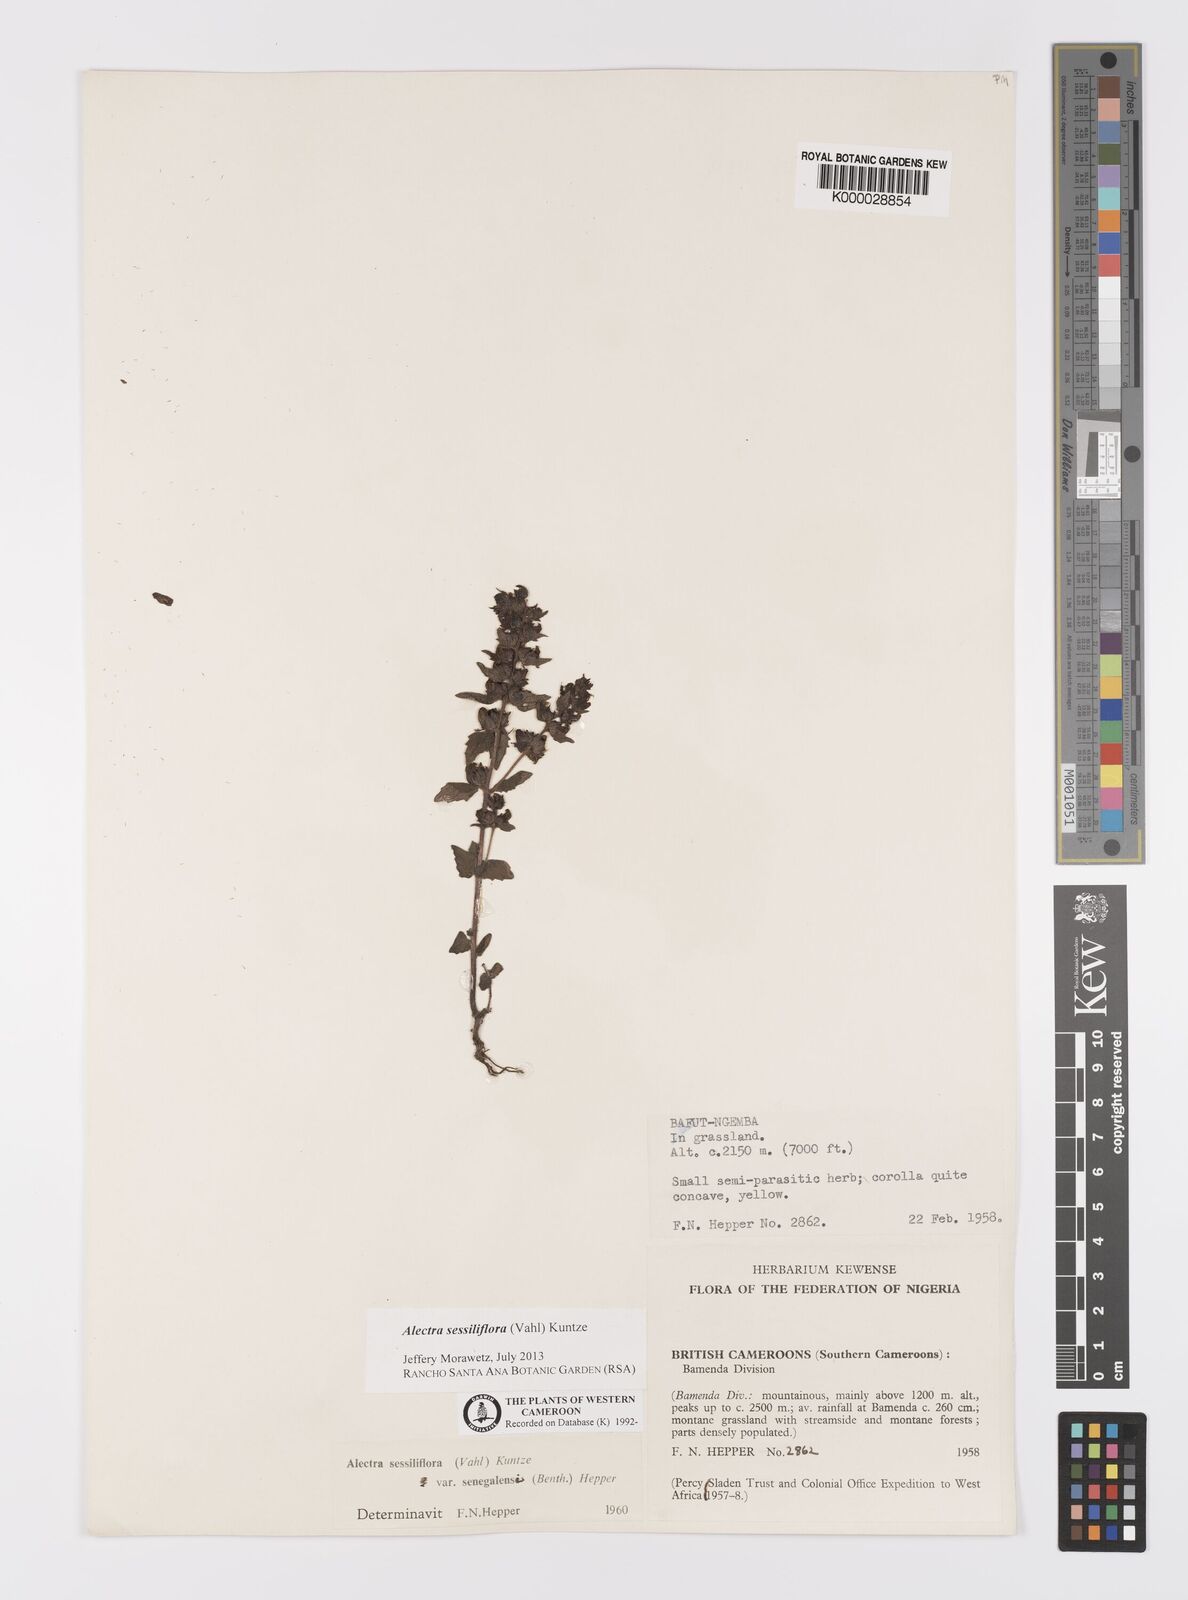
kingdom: Plantae
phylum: Tracheophyta
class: Magnoliopsida
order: Lamiales
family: Orobanchaceae
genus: Alectra
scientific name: Alectra sessiliflora
